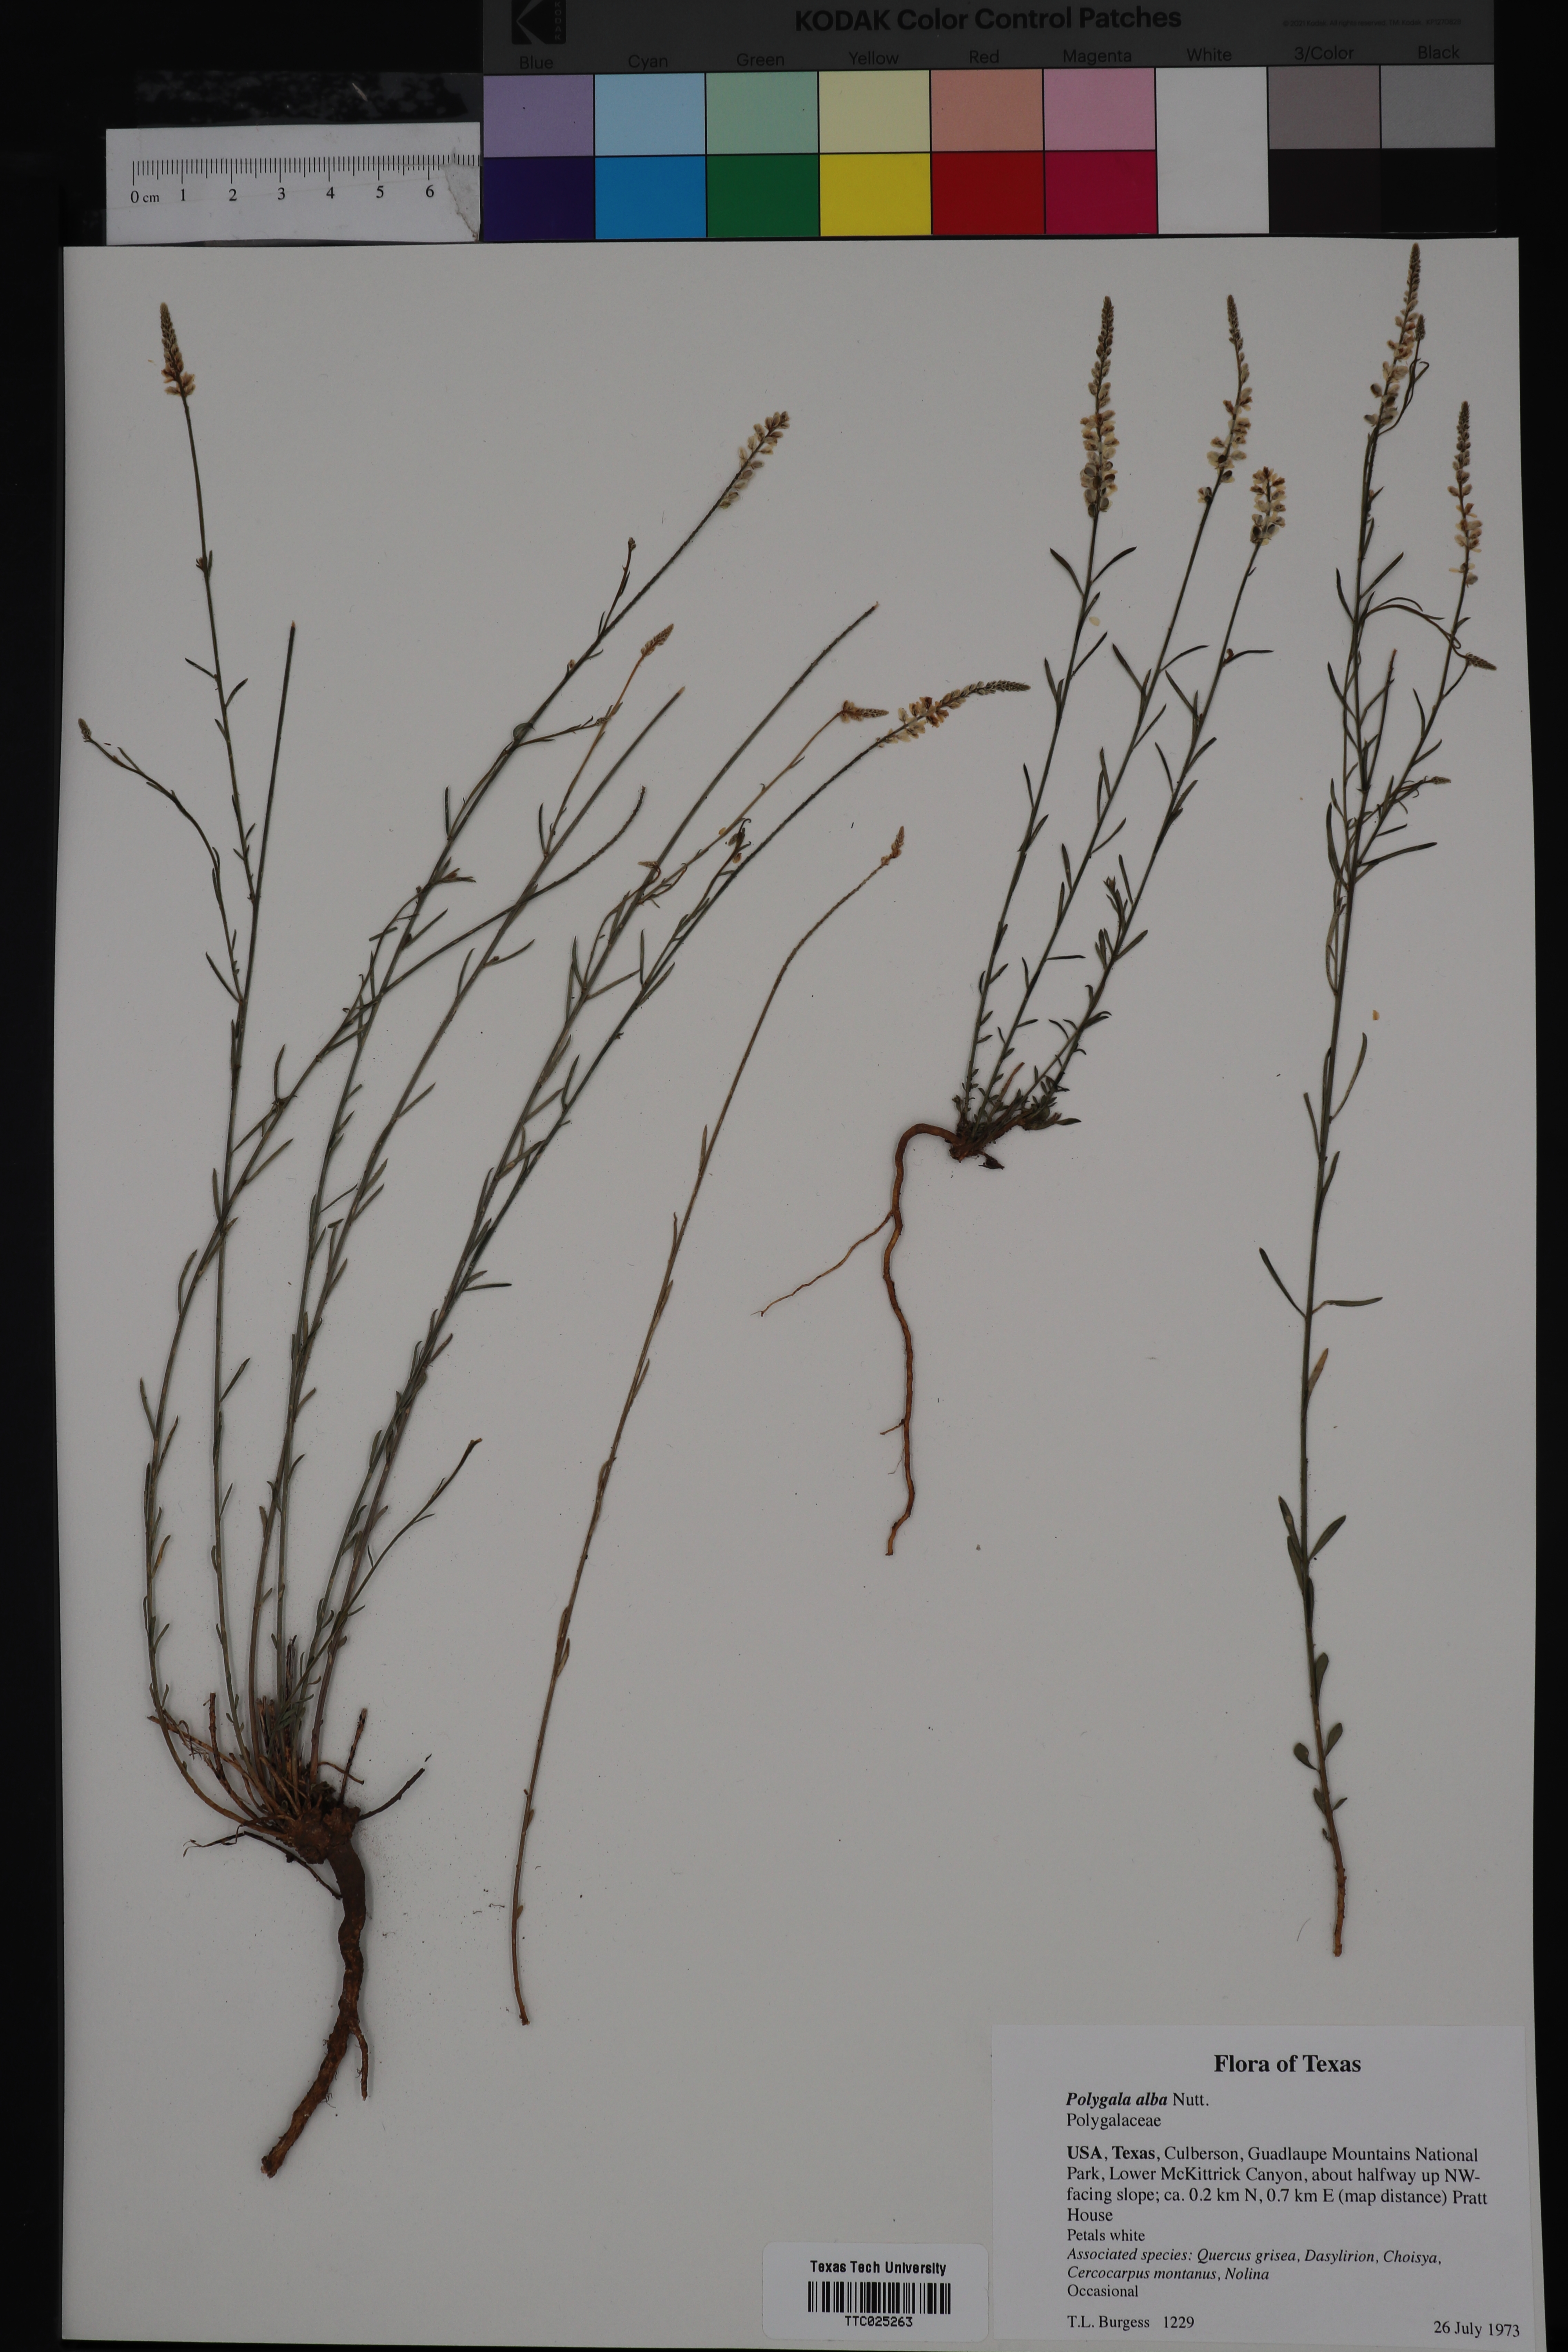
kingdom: Plantae
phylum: Tracheophyta
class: Magnoliopsida
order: Fabales
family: Polygalaceae
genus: Polygala
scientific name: Polygala alba
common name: White milkwort
